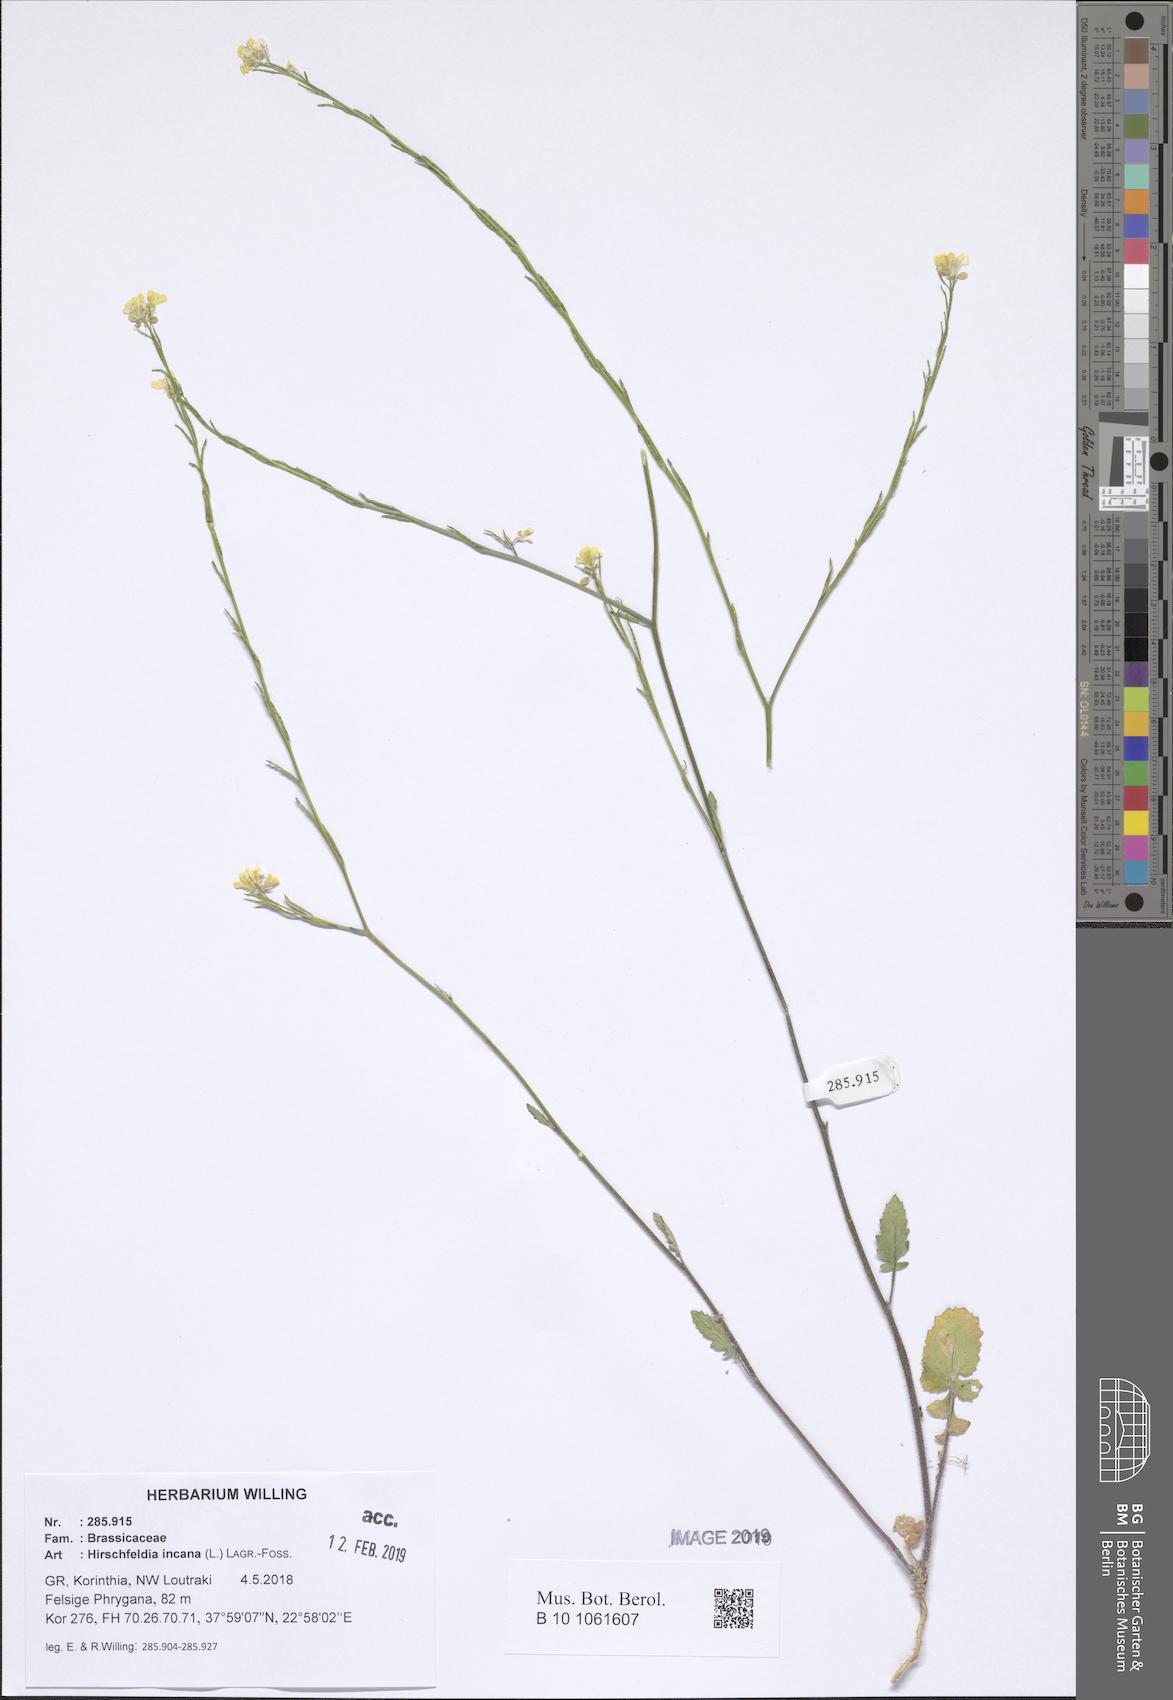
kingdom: Plantae
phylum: Tracheophyta
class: Magnoliopsida
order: Brassicales
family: Brassicaceae
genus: Hirschfeldia
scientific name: Hirschfeldia incana
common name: Hoary mustard
